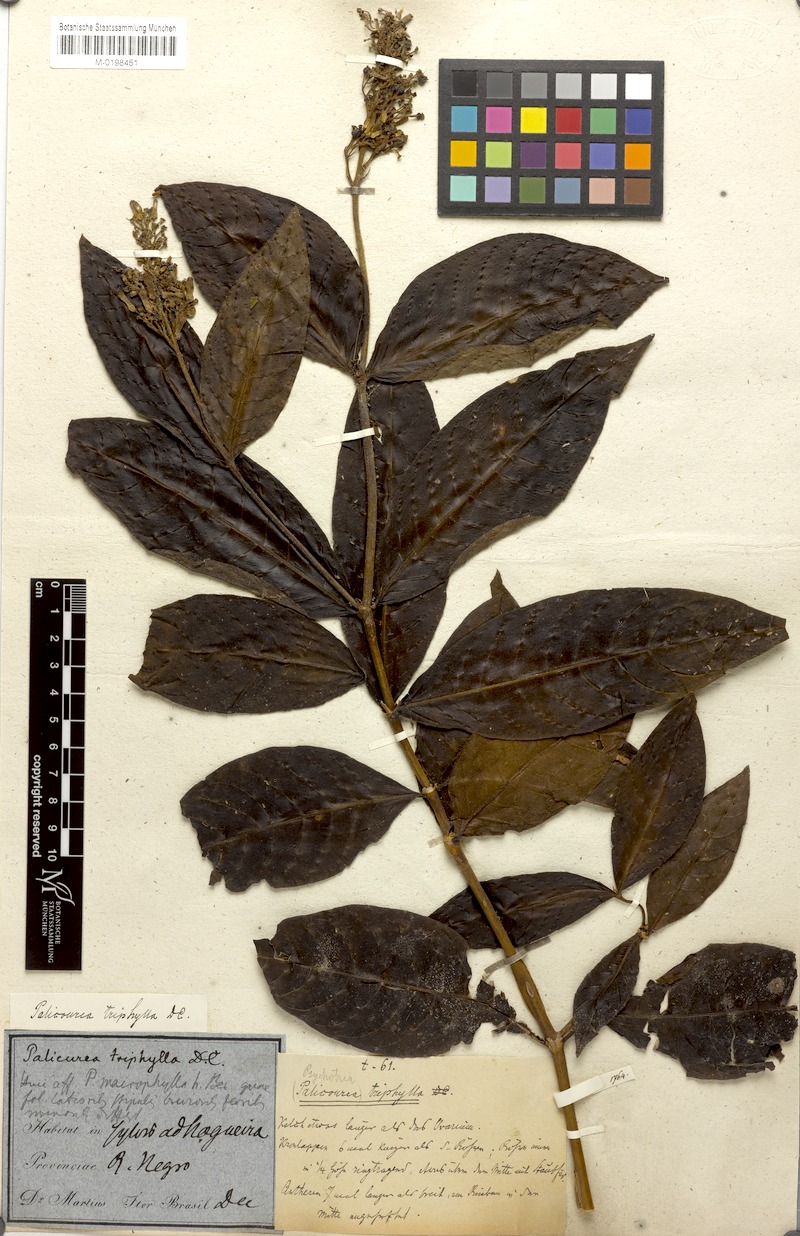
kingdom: Plantae
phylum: Tracheophyta
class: Magnoliopsida
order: Gentianales
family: Rubiaceae
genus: Palicourea
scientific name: Palicourea triphylla
